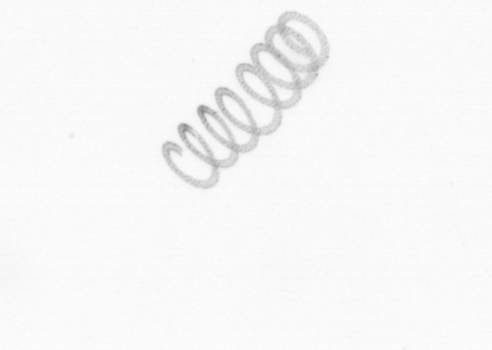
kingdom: Chromista
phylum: Ochrophyta
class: Bacillariophyceae
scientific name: Bacillariophyceae
